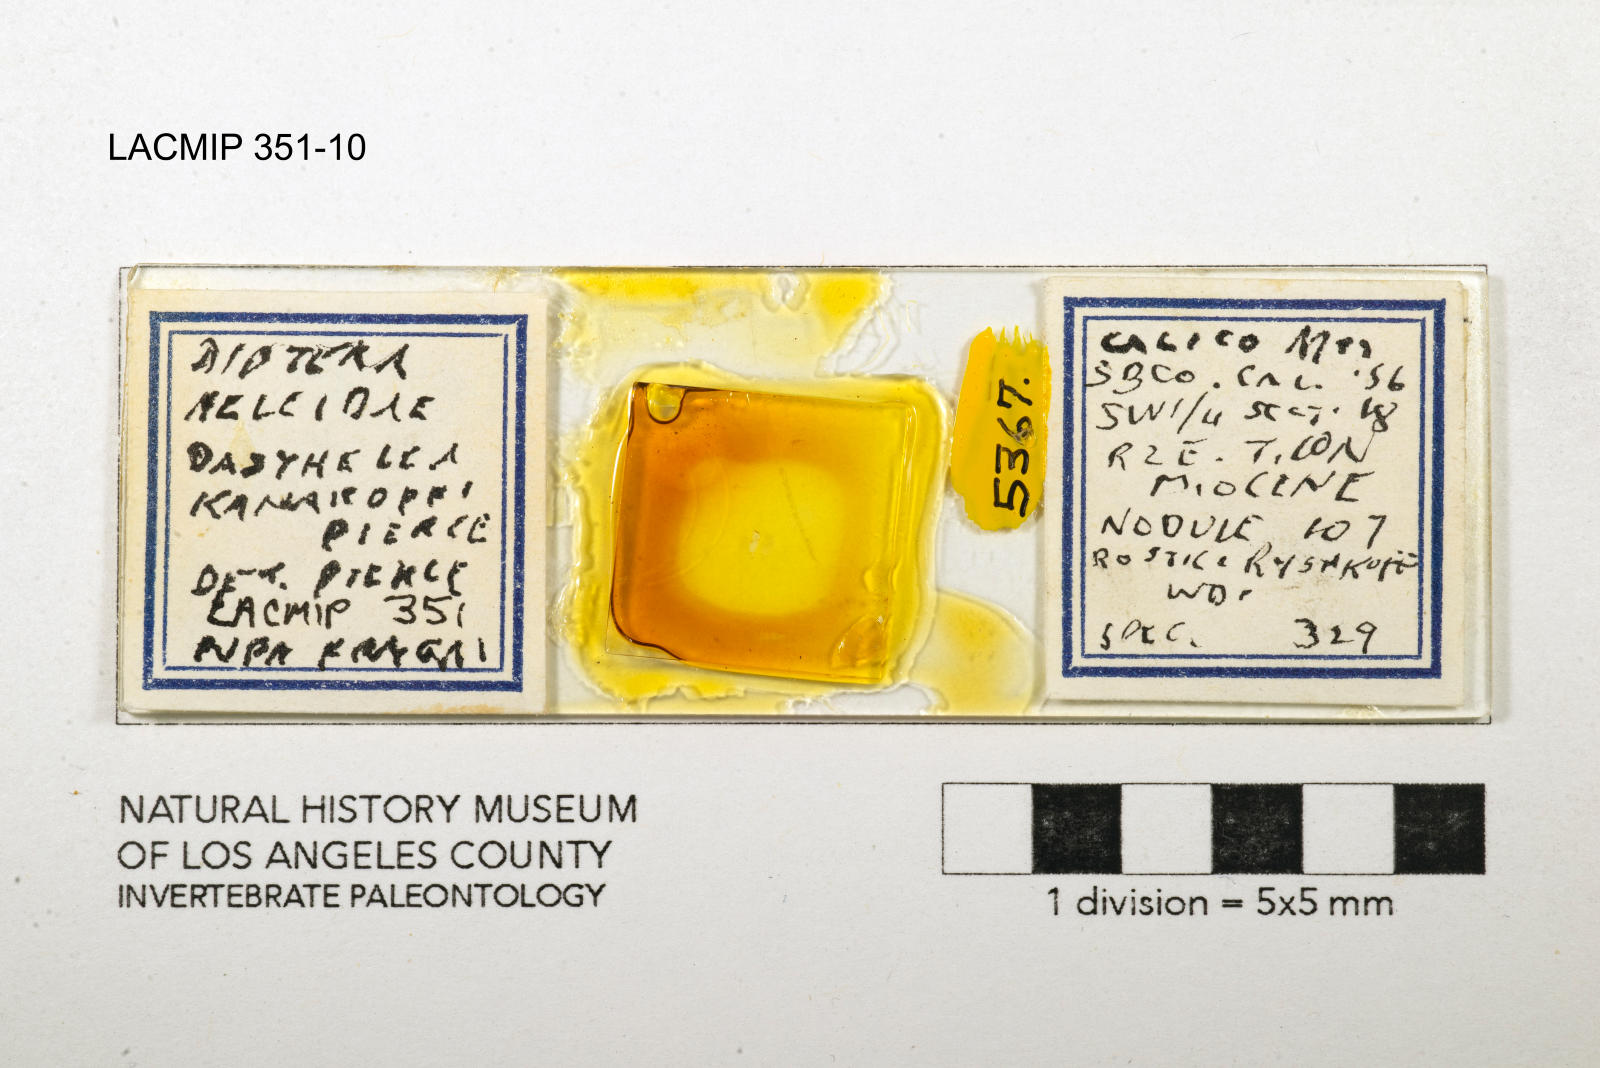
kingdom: Animalia
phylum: Arthropoda
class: Insecta
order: Diptera
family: Ceratopogonidae
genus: Dasyhelea
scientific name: Dasyhelea kanakoffi
